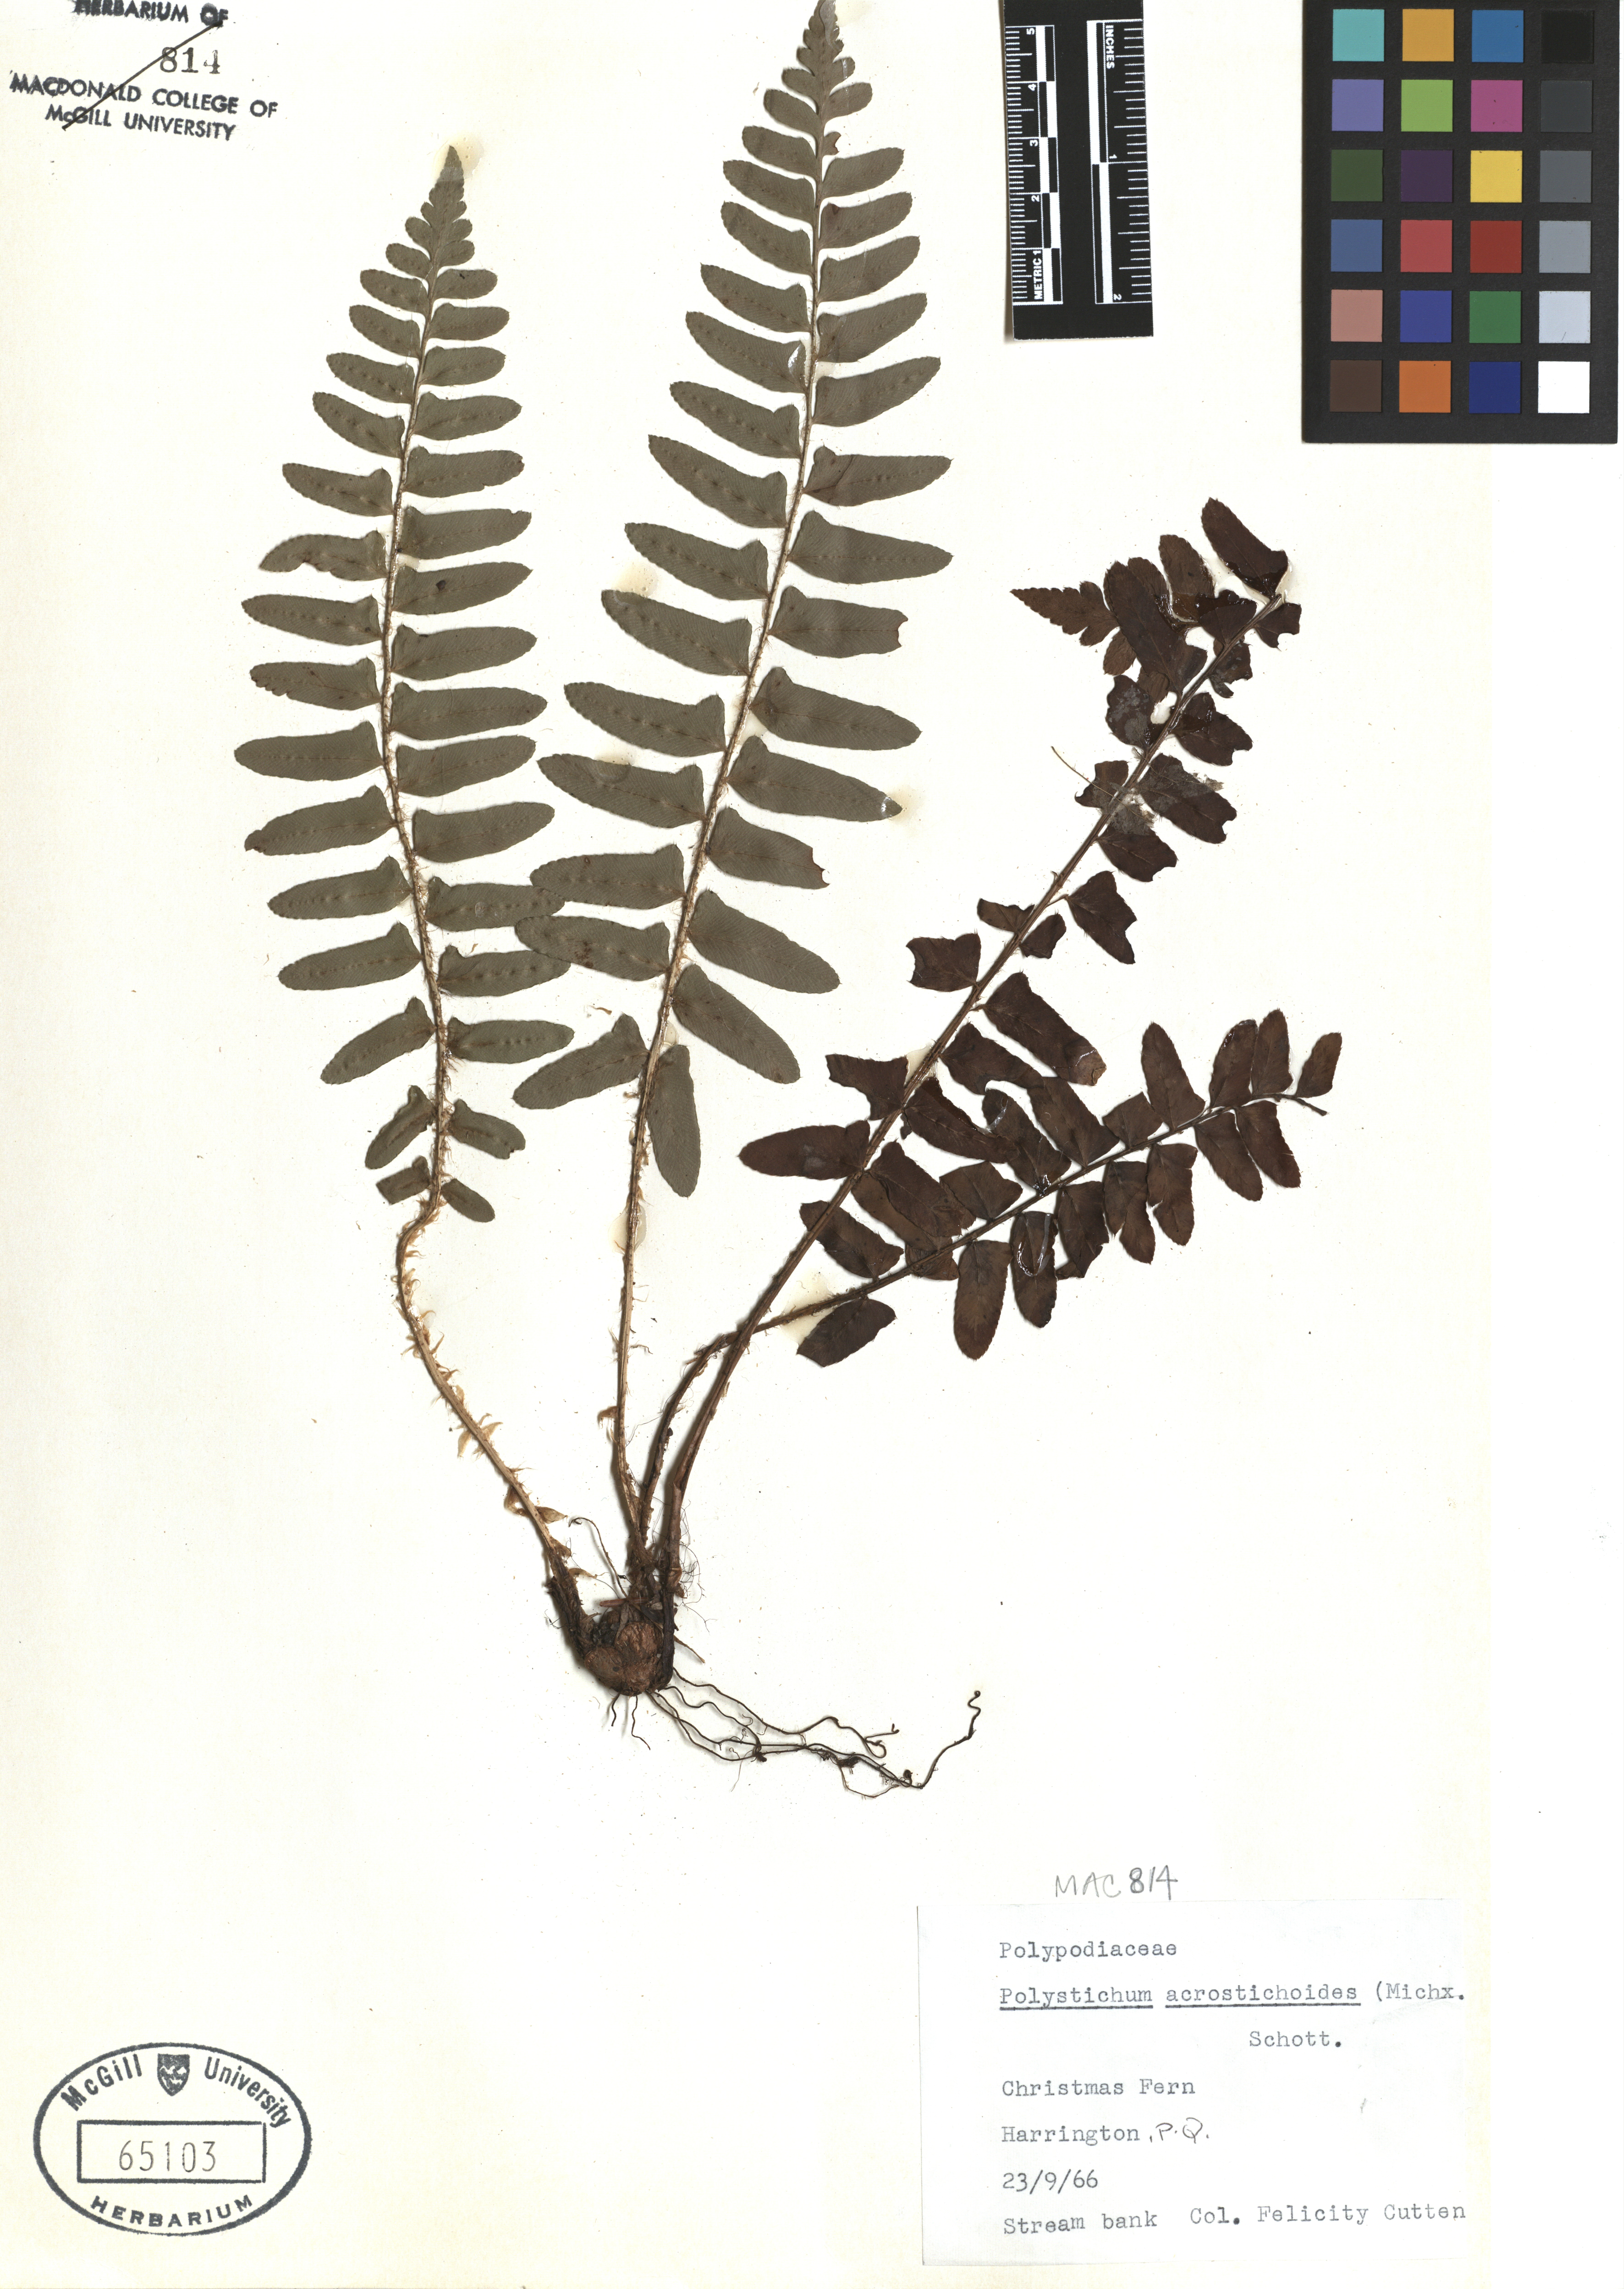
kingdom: Plantae
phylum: Tracheophyta
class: Polypodiopsida
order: Polypodiales
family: Dryopteridaceae
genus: Polystichum
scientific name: Polystichum acrostichoides
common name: Christmas fern
